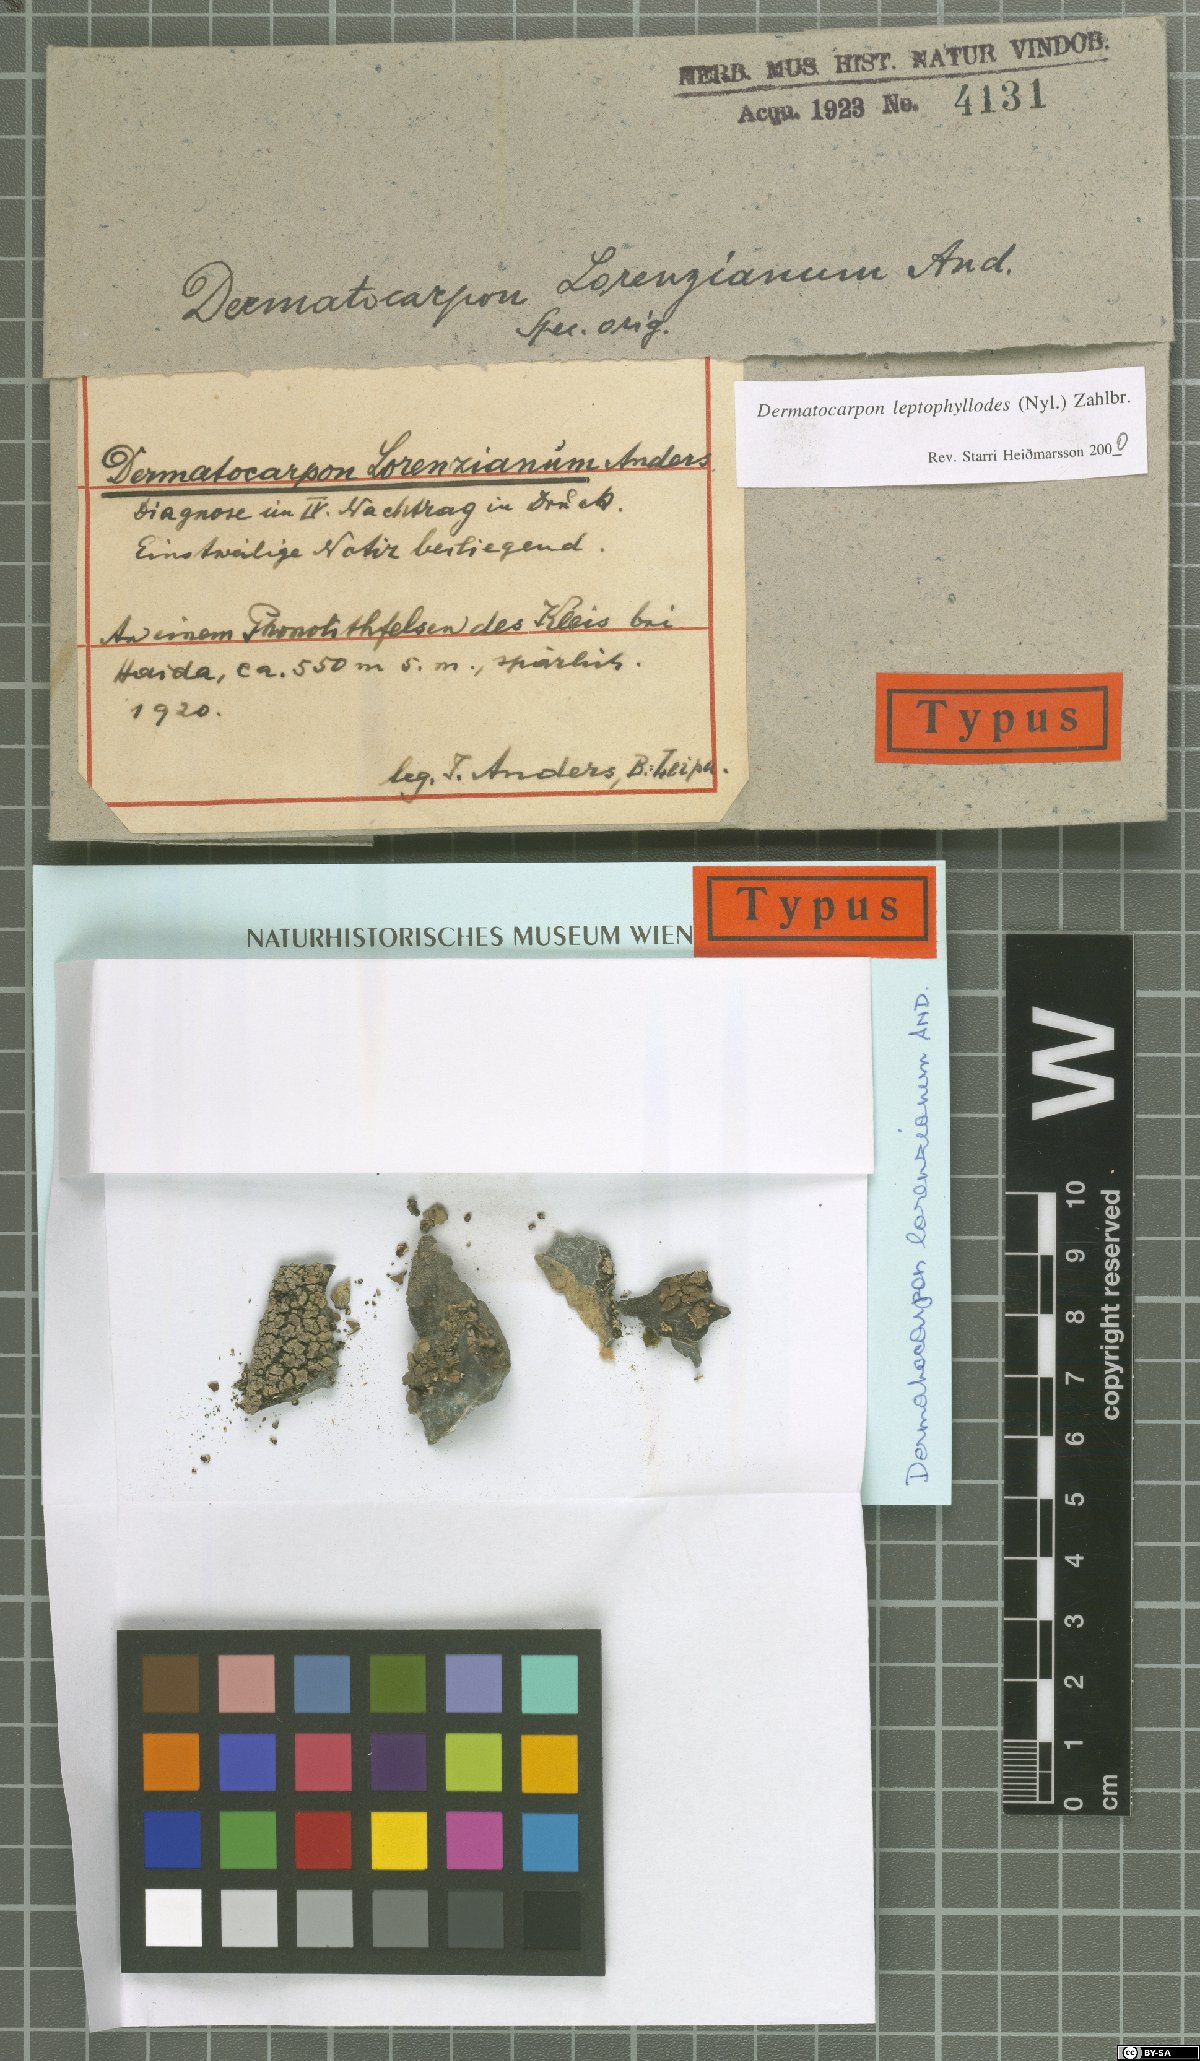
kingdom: Fungi
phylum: Ascomycota
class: Eurotiomycetes
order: Verrucariales
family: Verrucariaceae
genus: Dermatocarpon
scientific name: Dermatocarpon leptophyllodes
